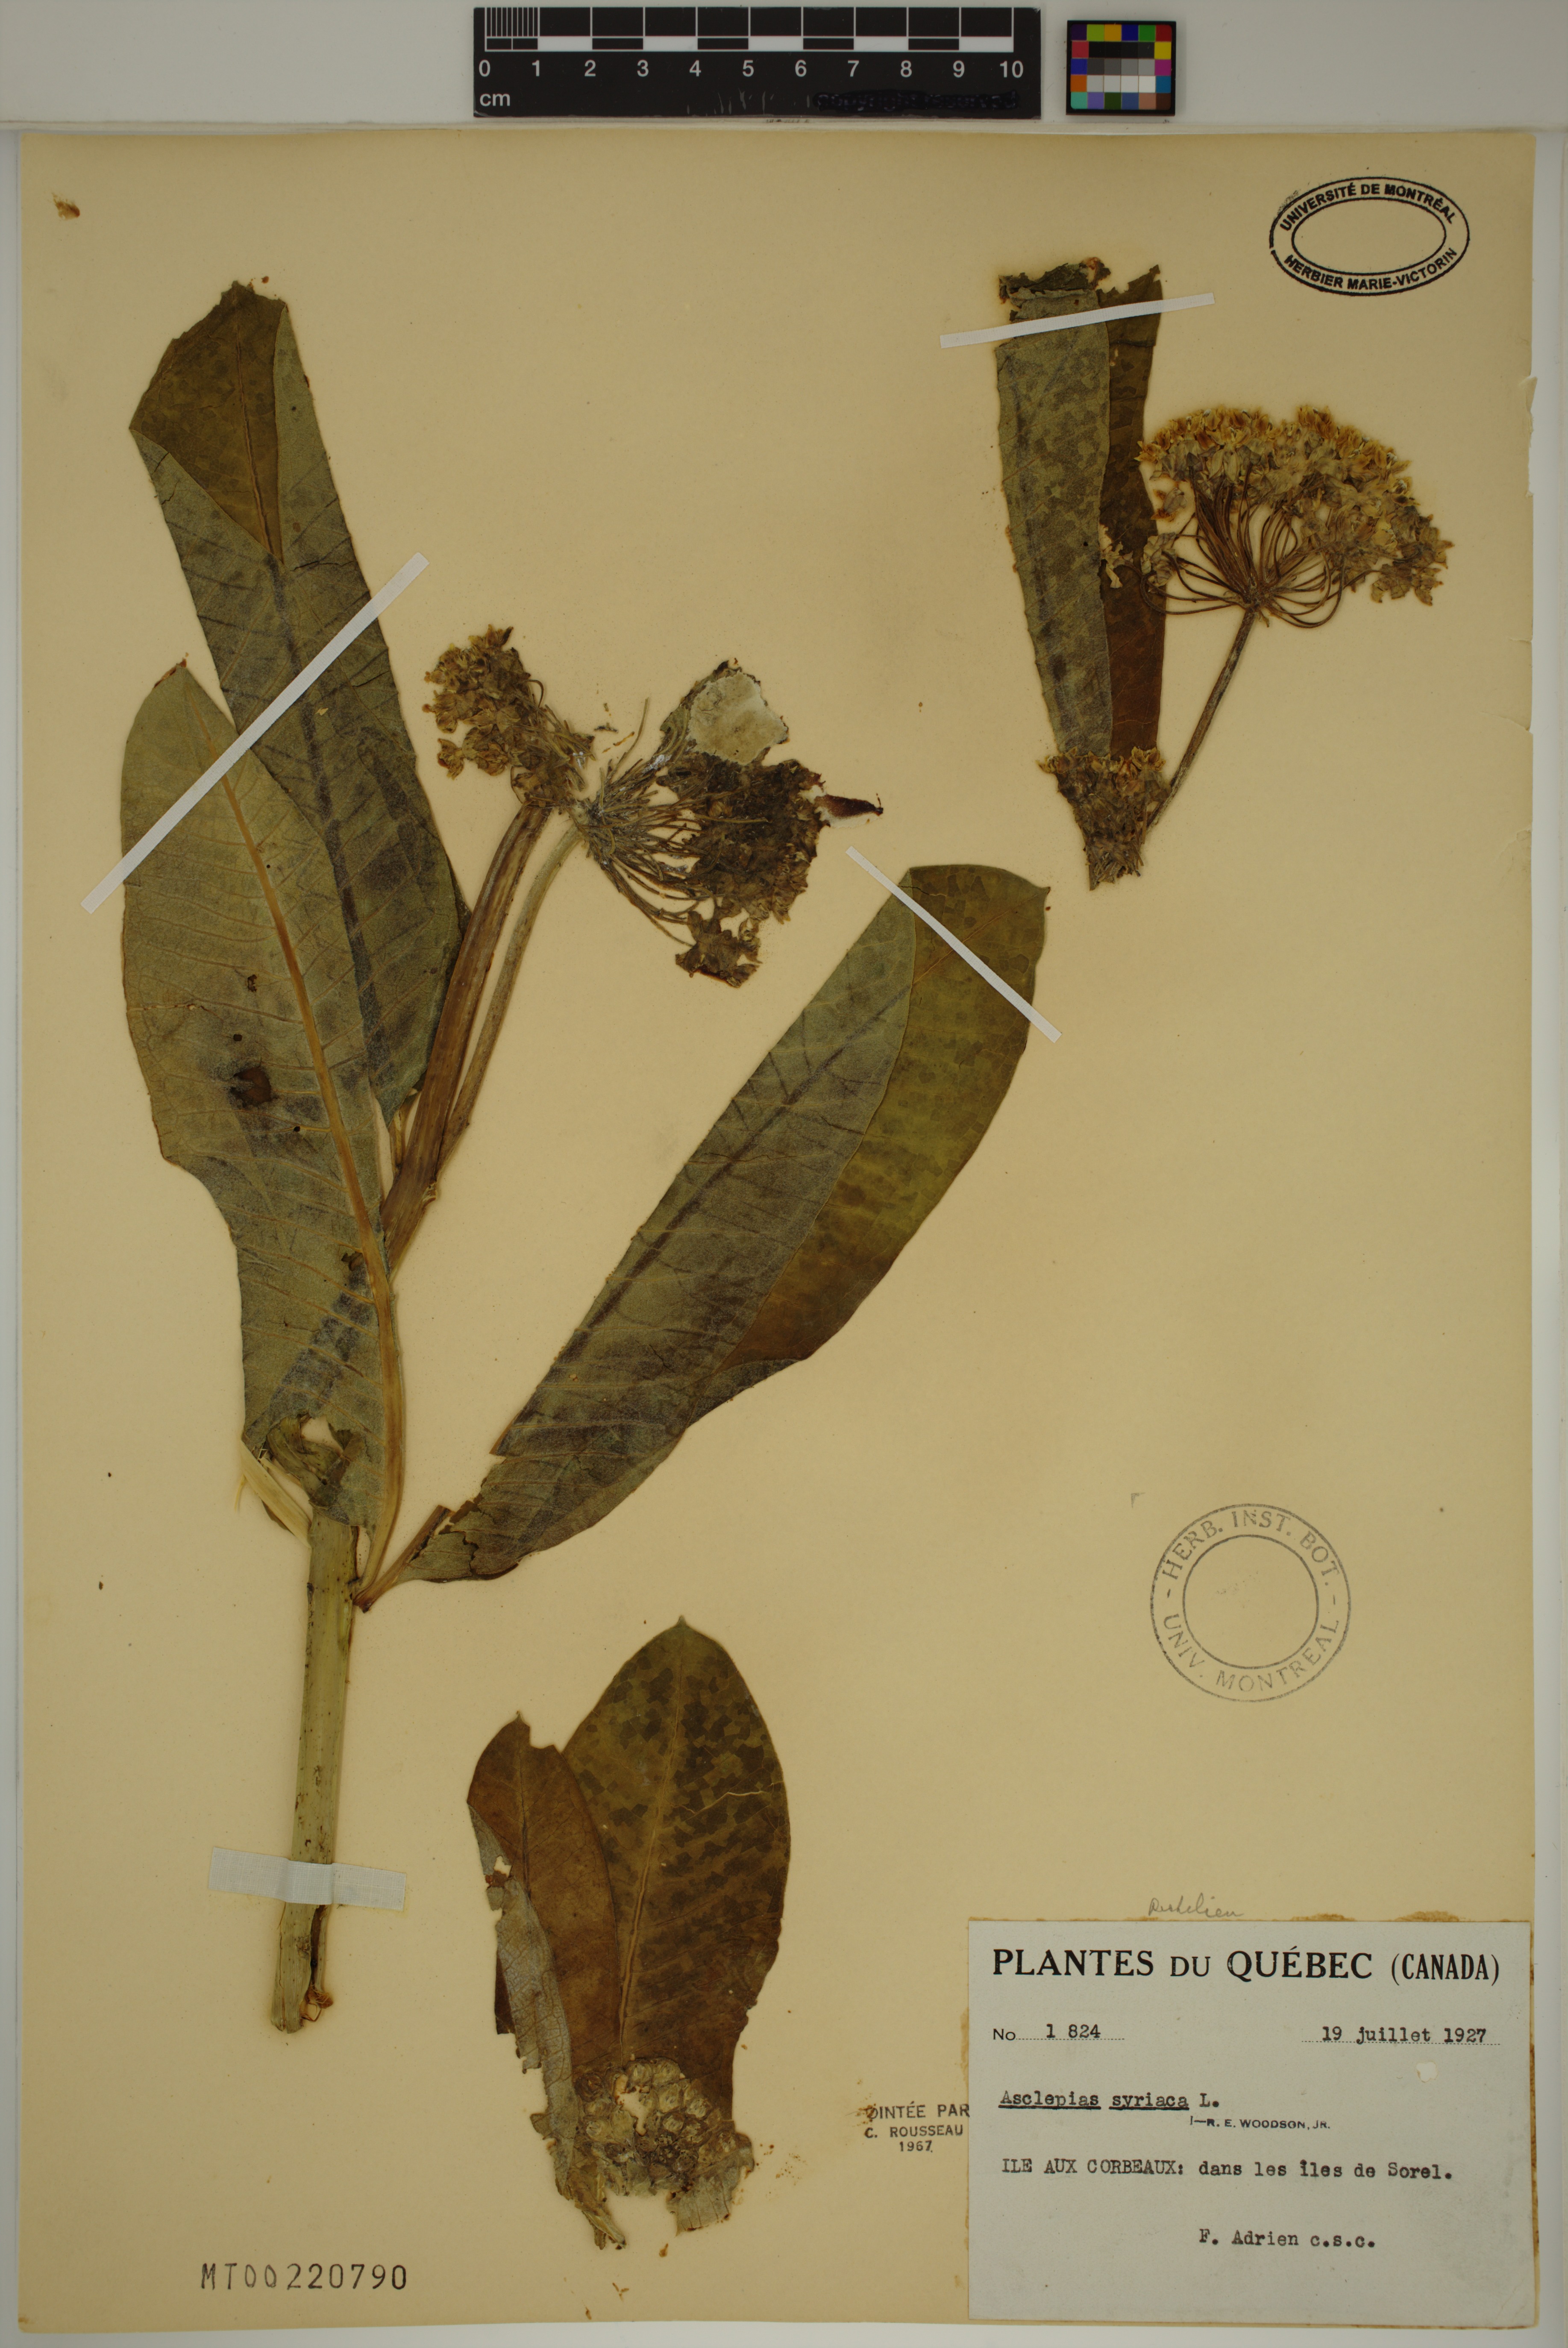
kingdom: Plantae
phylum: Tracheophyta
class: Magnoliopsida
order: Gentianales
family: Apocynaceae
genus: Asclepias
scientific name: Asclepias syriaca
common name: Common milkweed
